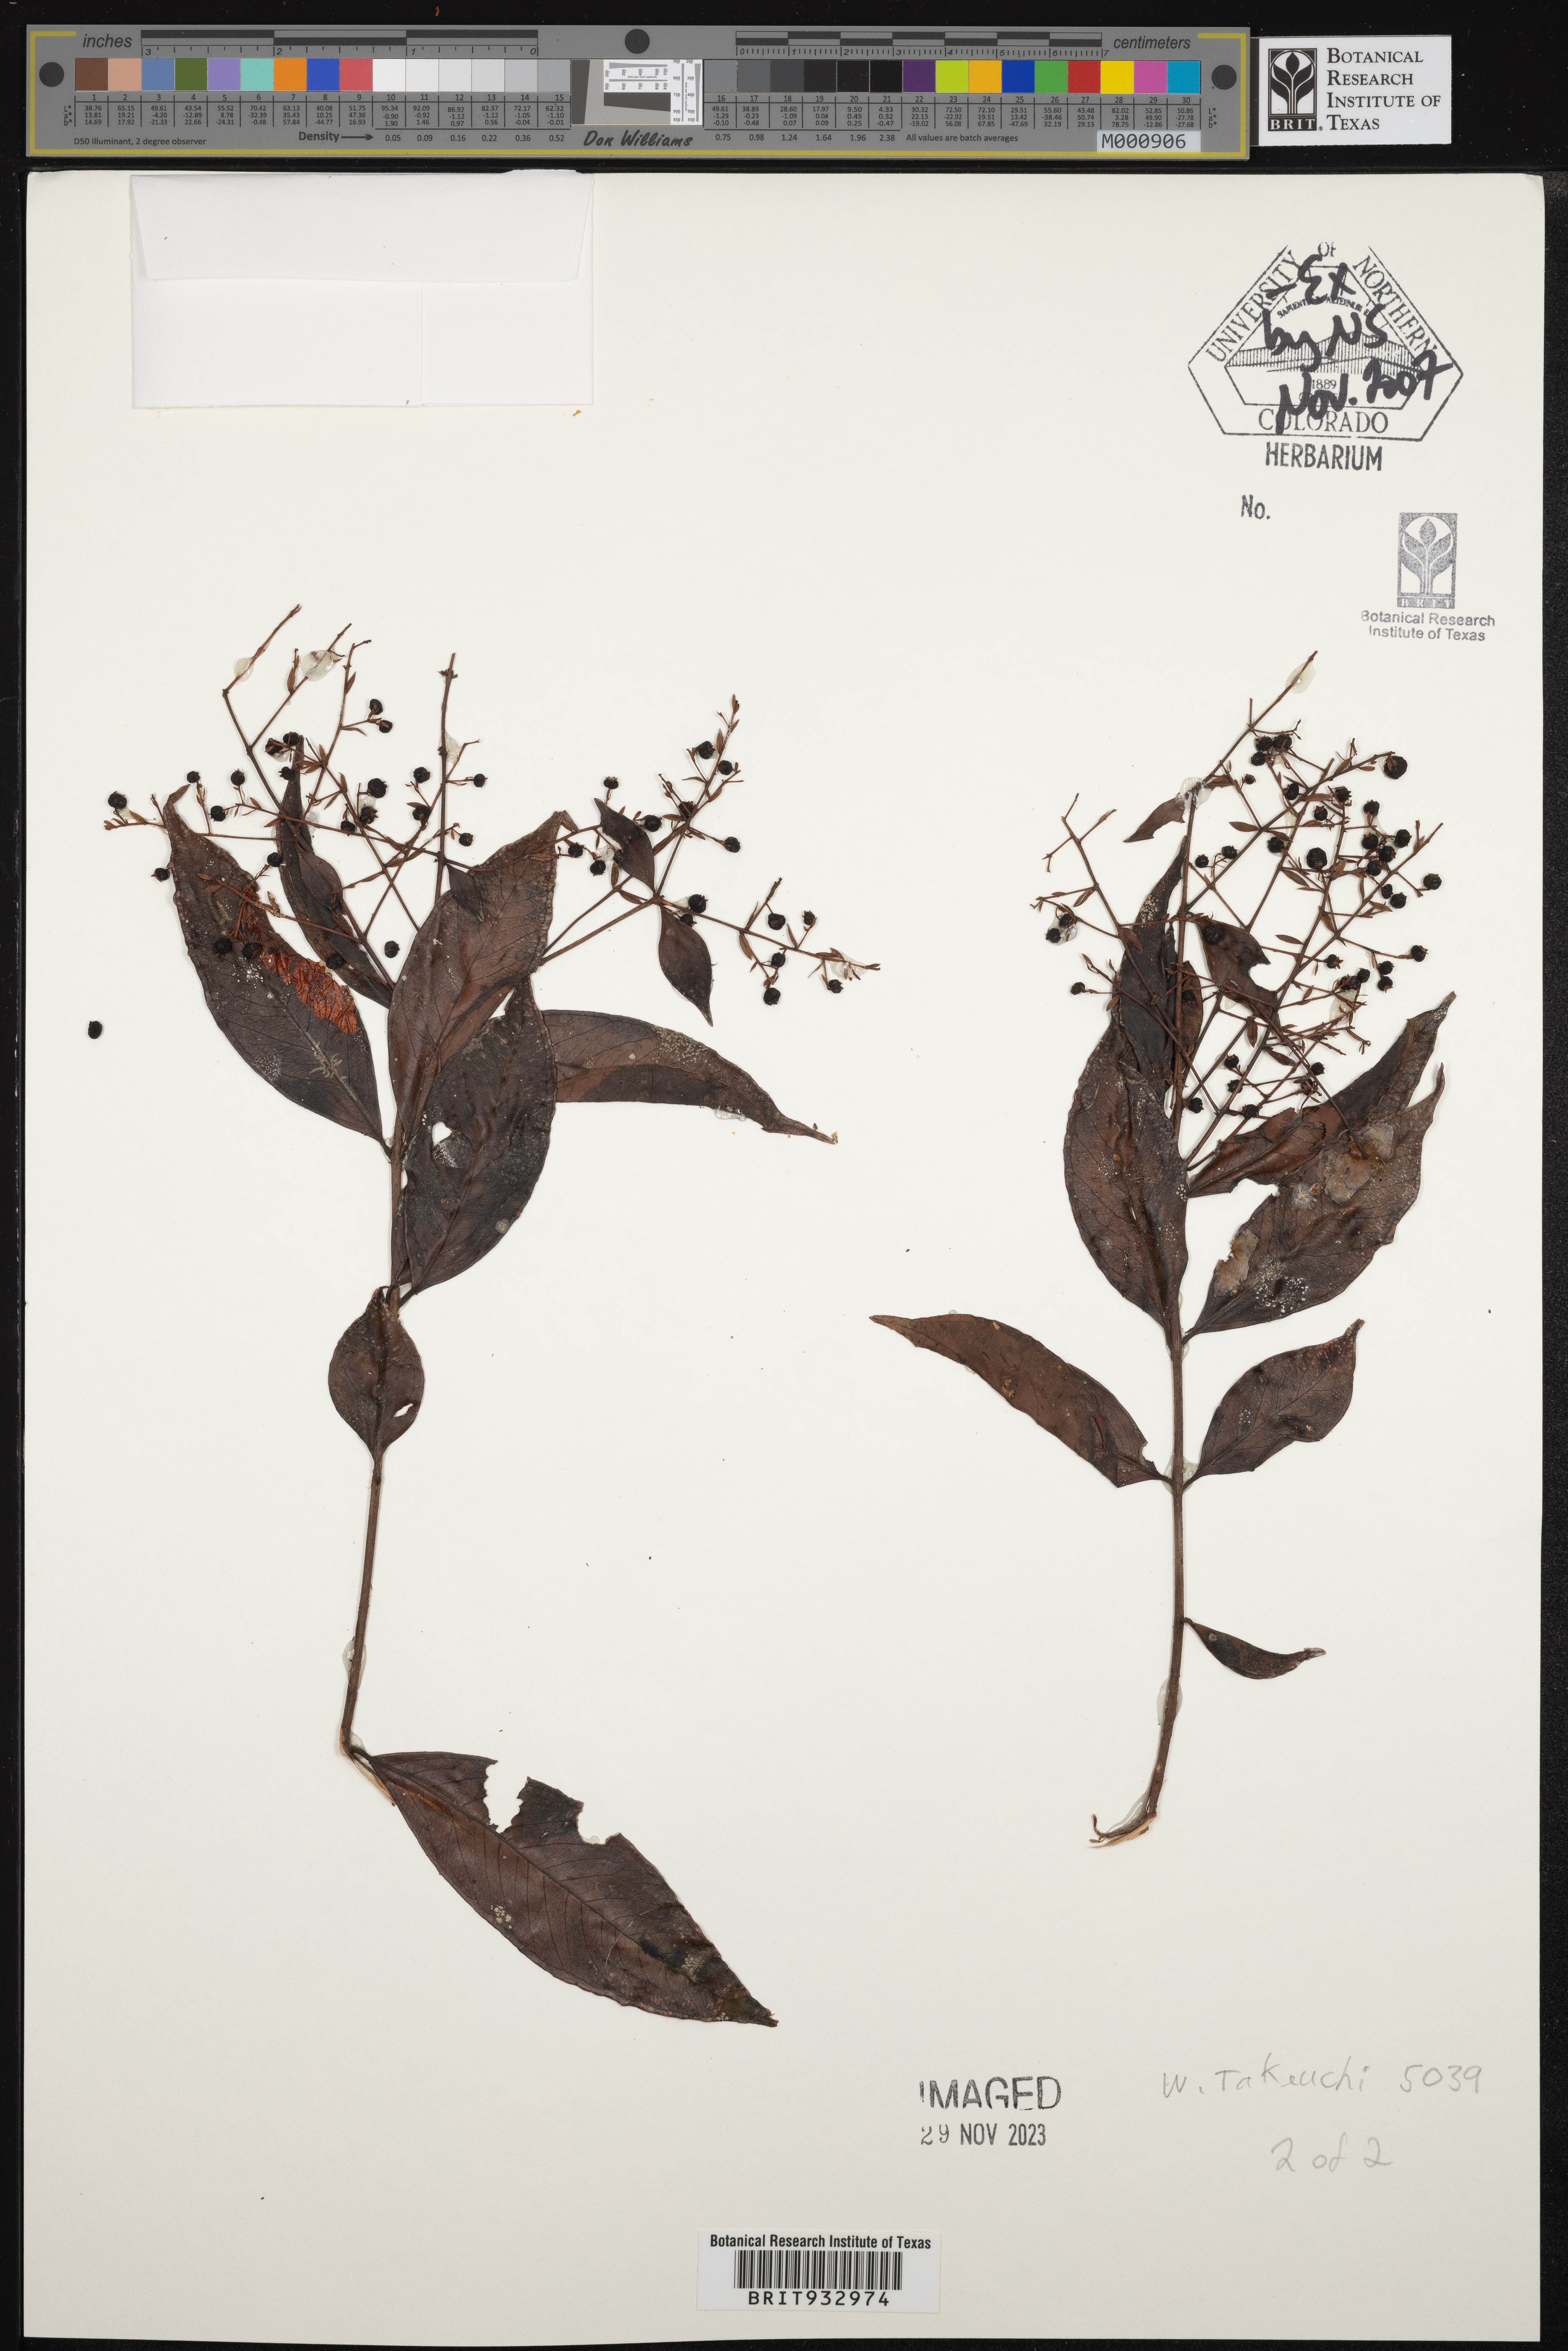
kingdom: Plantae
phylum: Tracheophyta
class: Magnoliopsida
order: Myrtales
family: Myrtaceae
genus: Decaspermum
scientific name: Decaspermum
